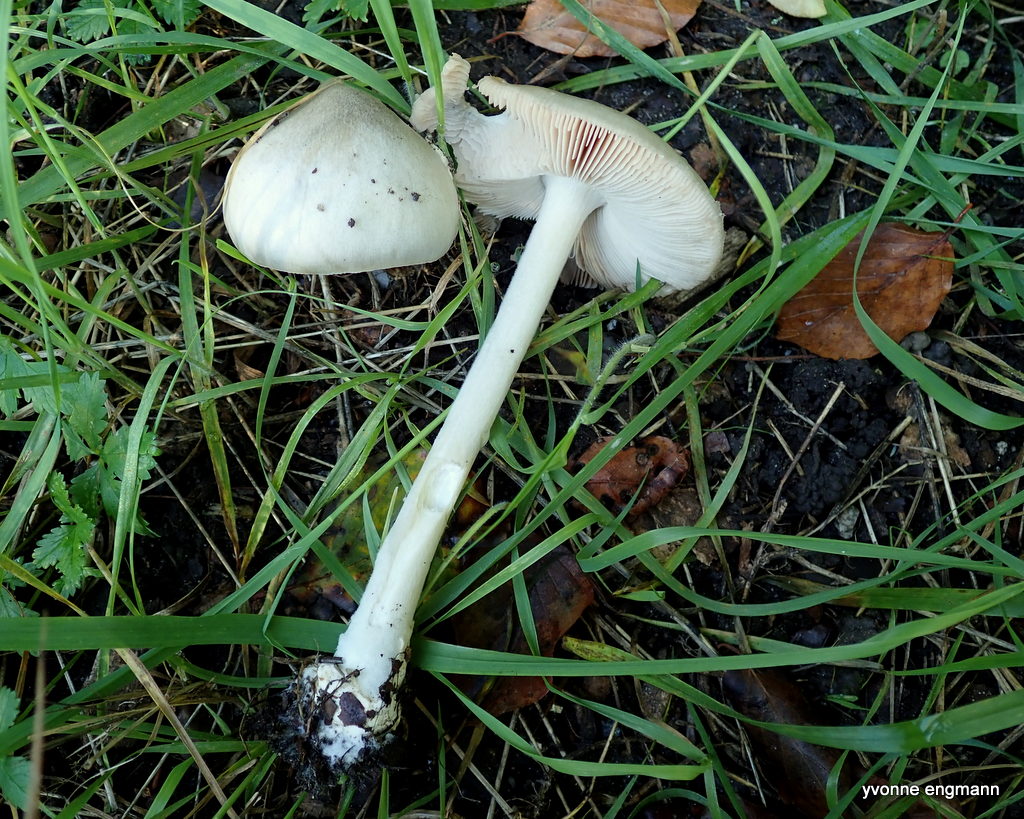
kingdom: Fungi
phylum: Basidiomycota
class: Agaricomycetes
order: Agaricales
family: Pluteaceae
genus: Volvopluteus
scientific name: Volvopluteus gloiocephalus
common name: høj posesvamp
